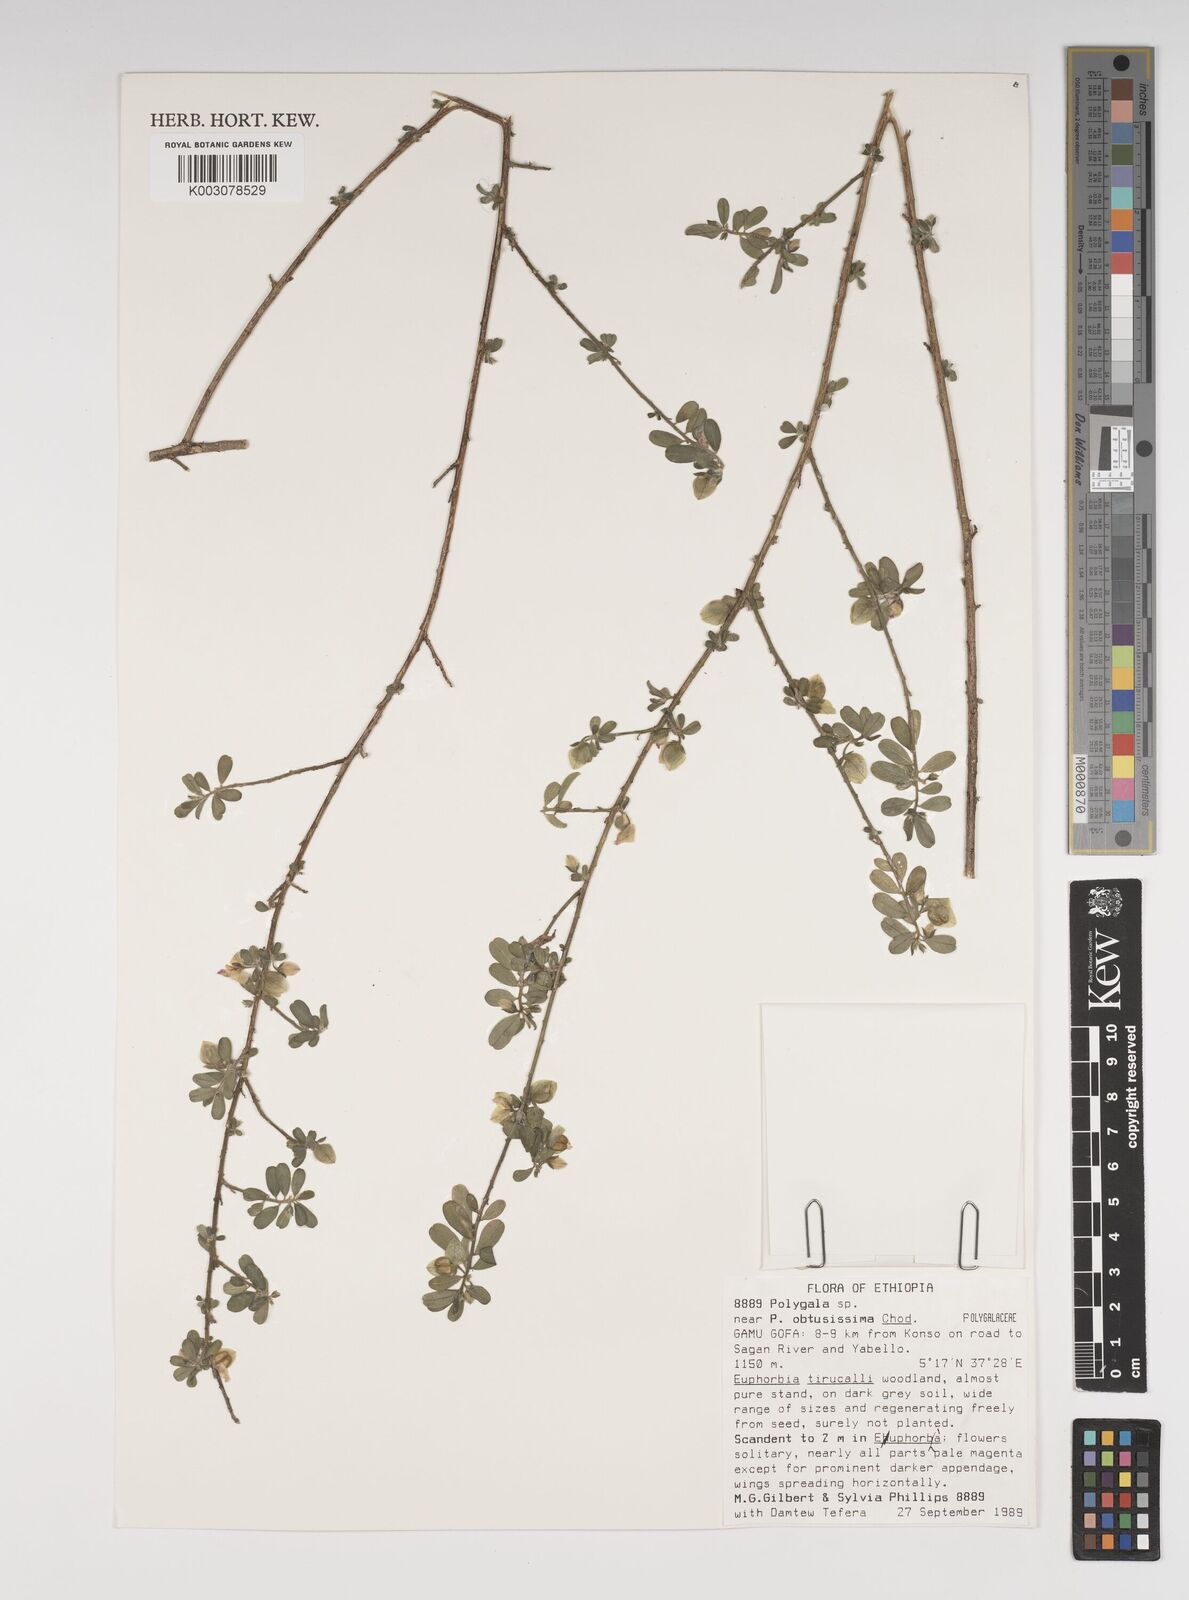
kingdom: Plantae
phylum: Tracheophyta
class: Magnoliopsida
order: Fabales
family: Polygalaceae
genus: Polygala
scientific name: Polygala senensis
